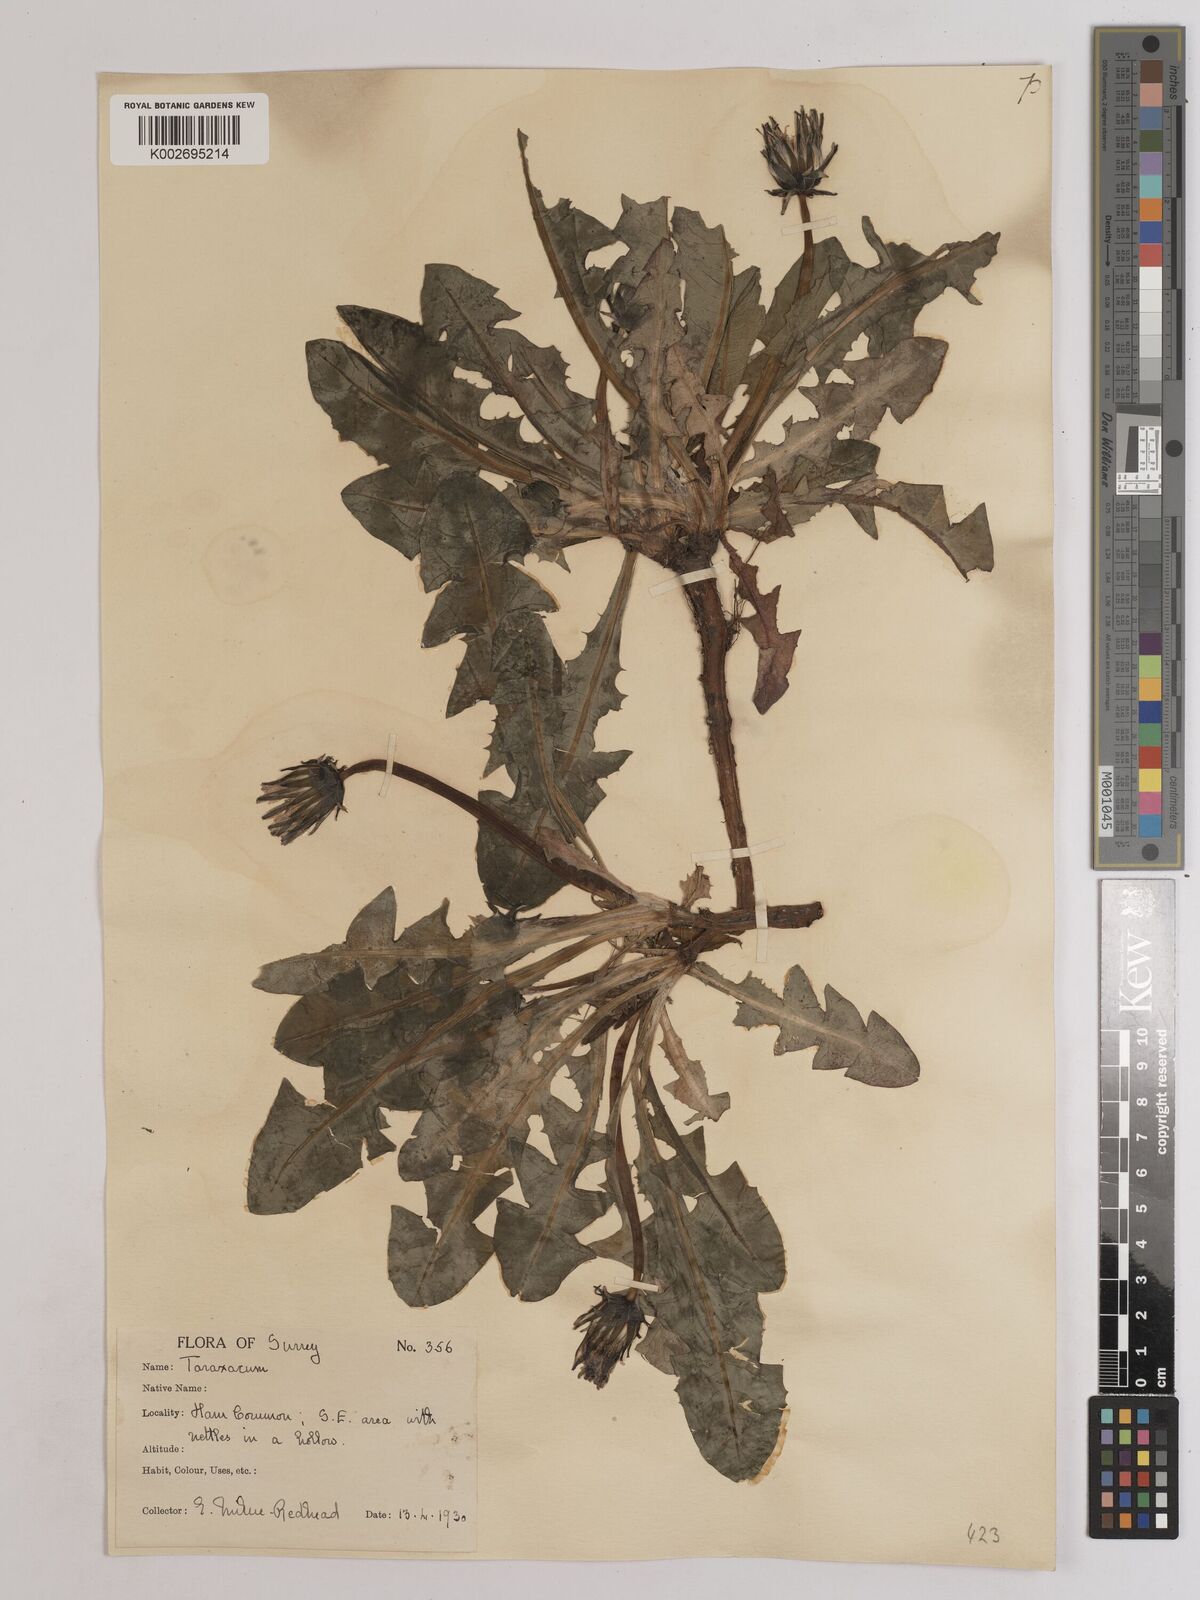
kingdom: Plantae
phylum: Tracheophyta
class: Magnoliopsida
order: Asterales
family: Asteraceae
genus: Taraxacum
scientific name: Taraxacum officinale
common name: Common dandelion
